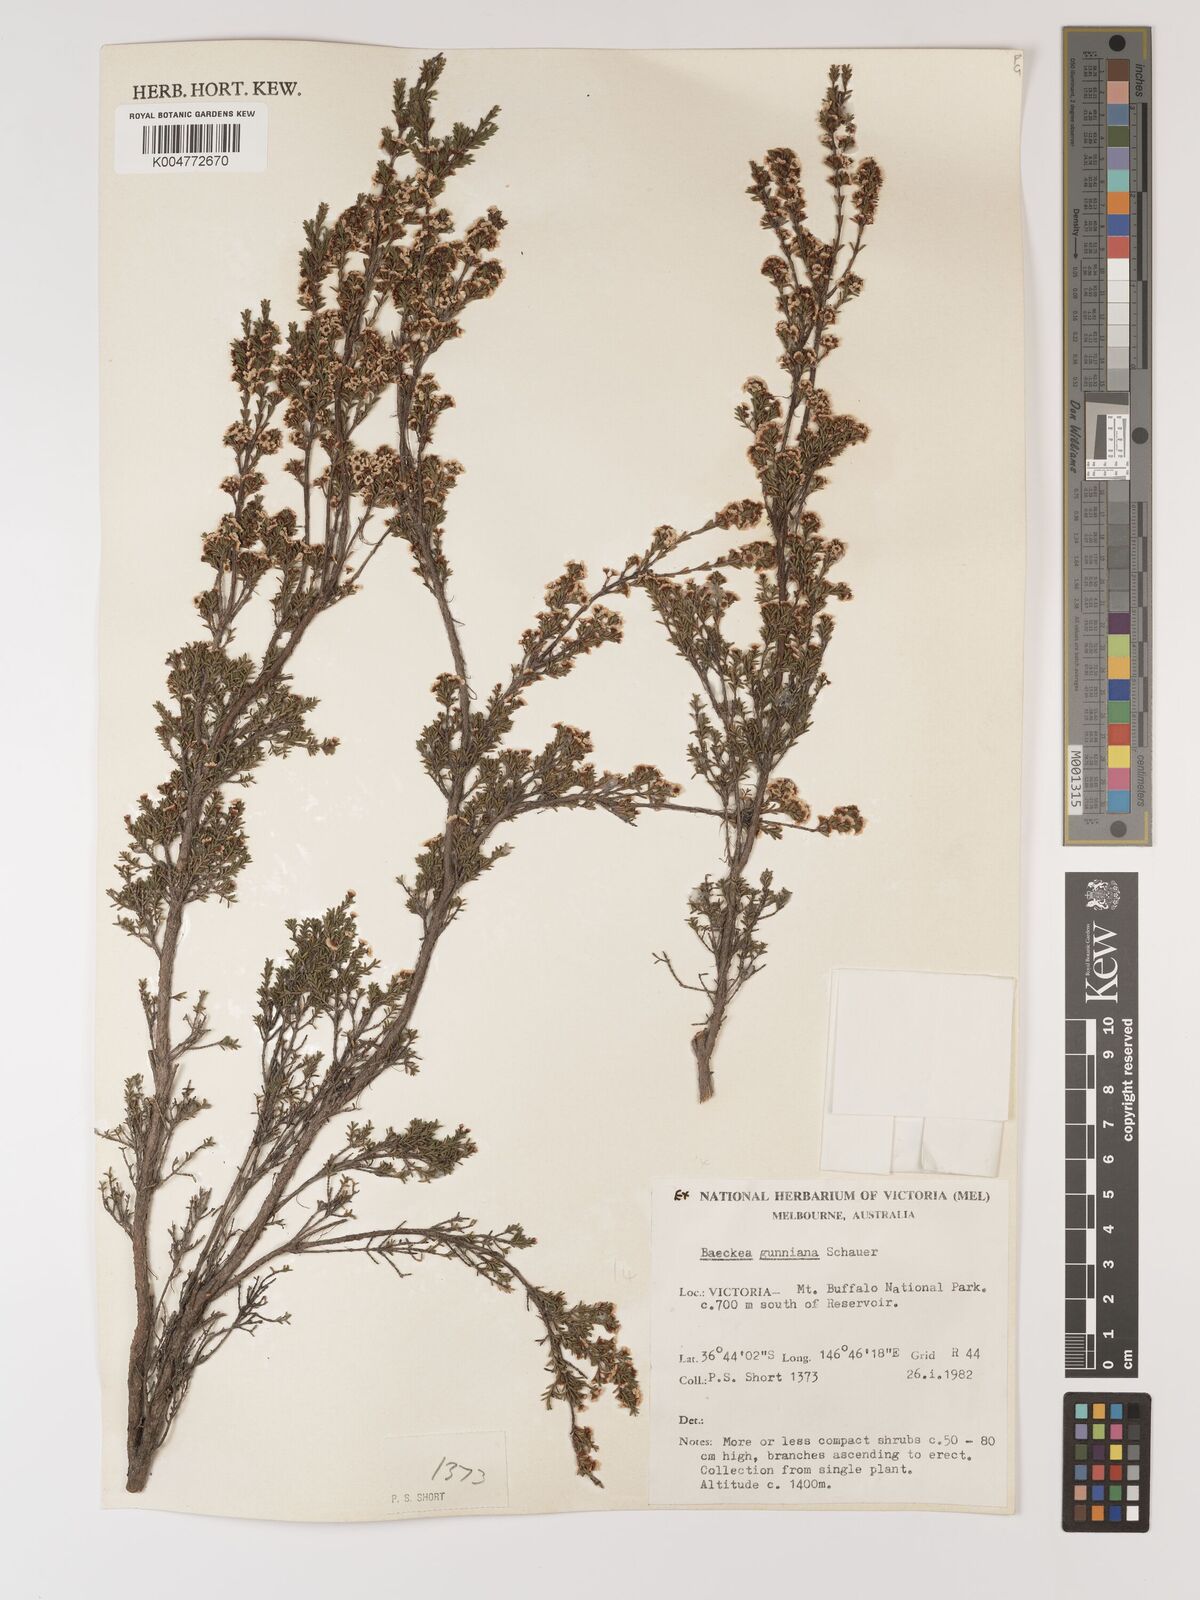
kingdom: Plantae
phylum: Tracheophyta
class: Magnoliopsida
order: Myrtales
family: Myrtaceae
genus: Baeckea
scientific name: Baeckea gunniana
